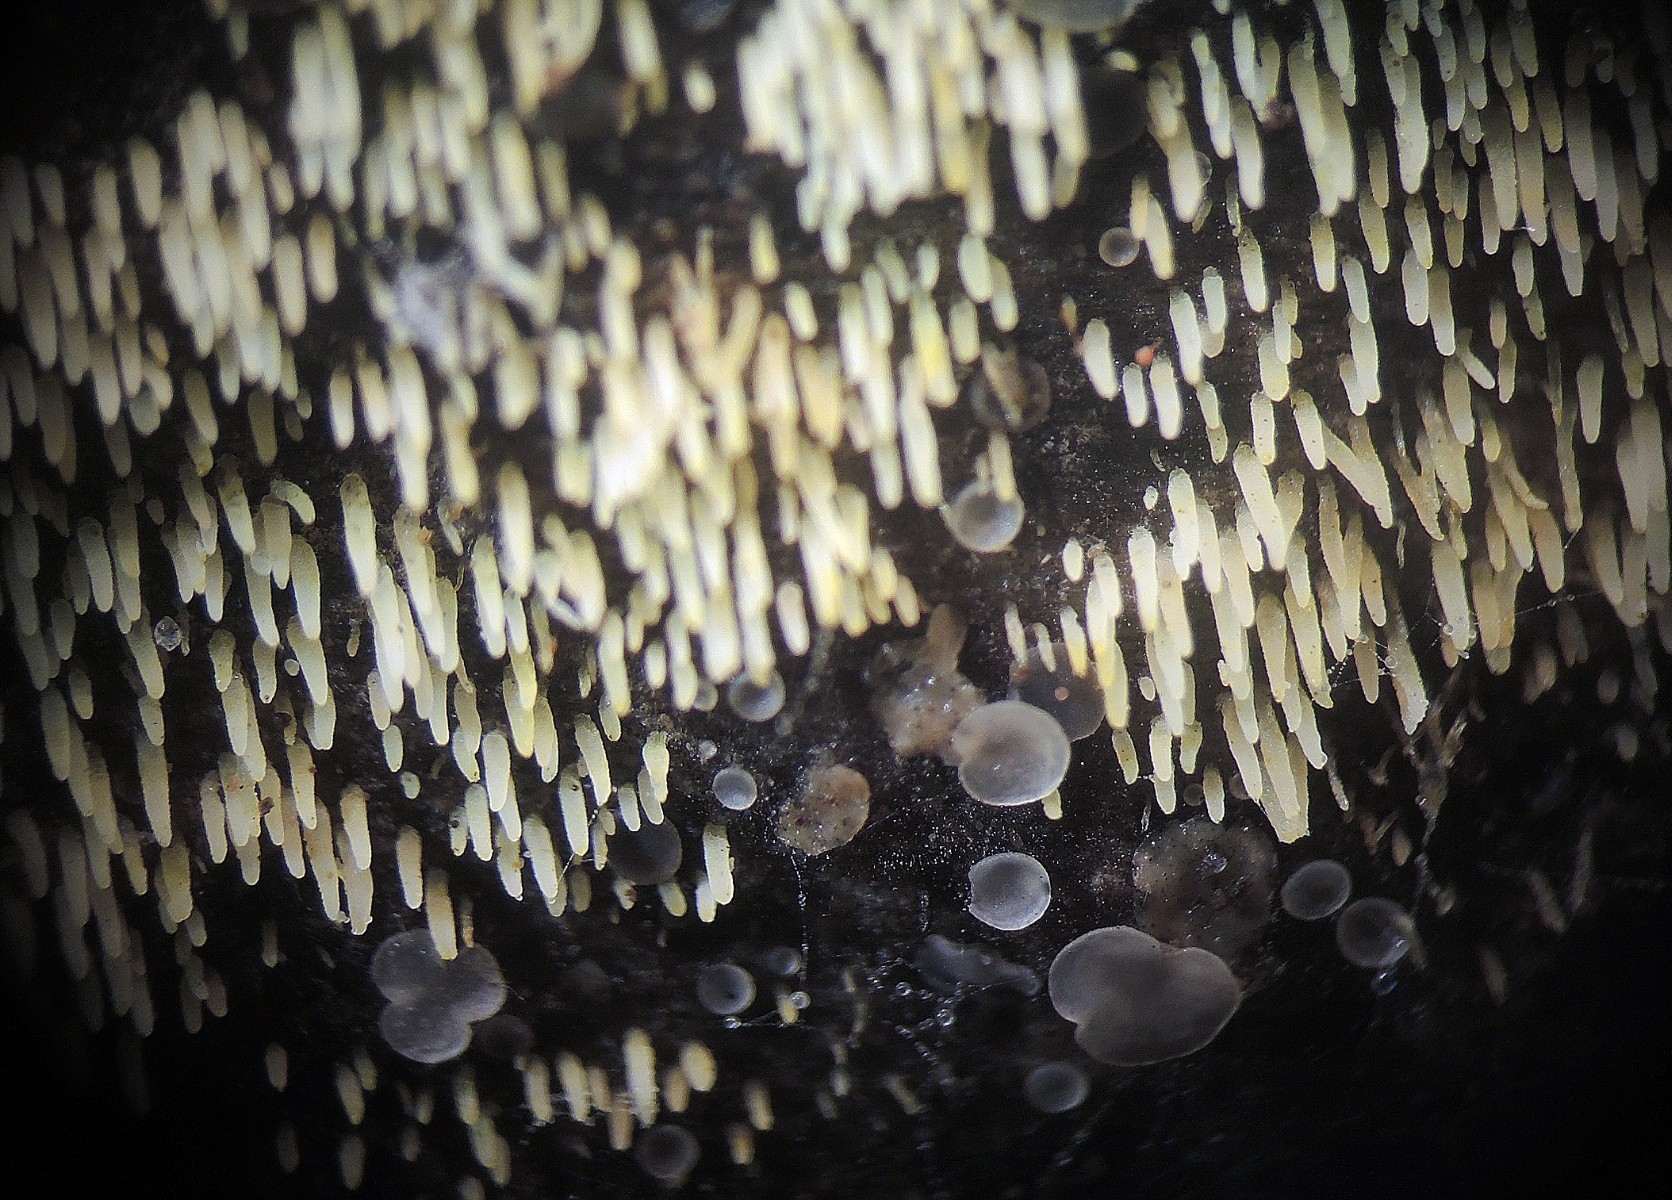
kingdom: Fungi
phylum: Basidiomycota
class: Agaricomycetes
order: Agaricales
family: Clavariaceae
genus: Mucronella
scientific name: Mucronella calva
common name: hvid hængepig
